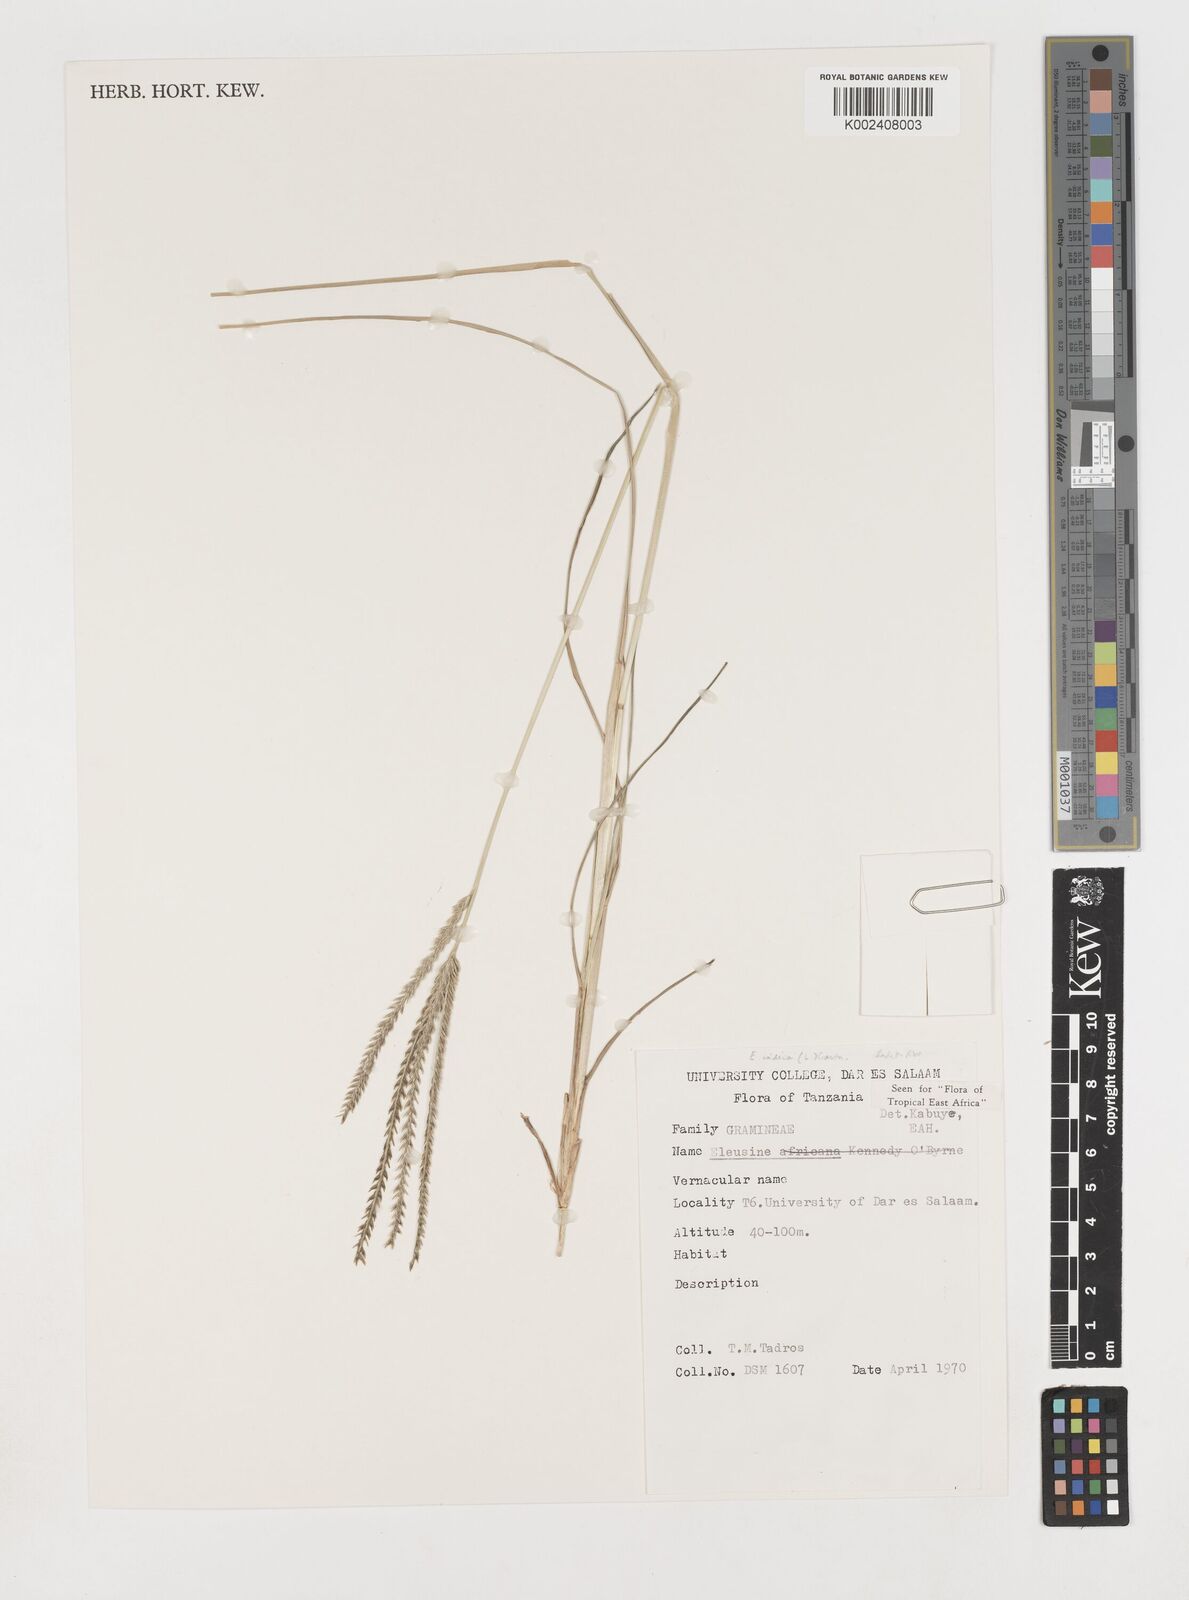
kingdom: Plantae
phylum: Tracheophyta
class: Liliopsida
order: Poales
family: Poaceae
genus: Eleusine
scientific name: Eleusine indica
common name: Yard-grass
